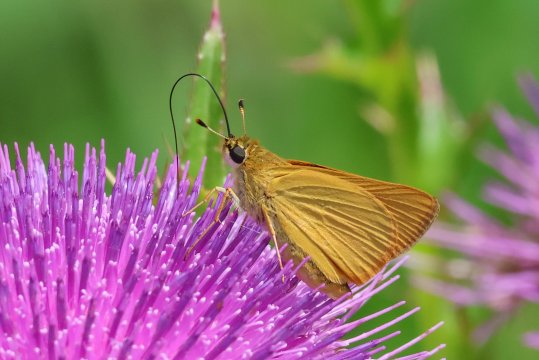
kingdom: Animalia
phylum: Arthropoda
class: Insecta
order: Lepidoptera
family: Hesperiidae
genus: Atrytone
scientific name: Atrytone delaware
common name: Delaware Skipper
